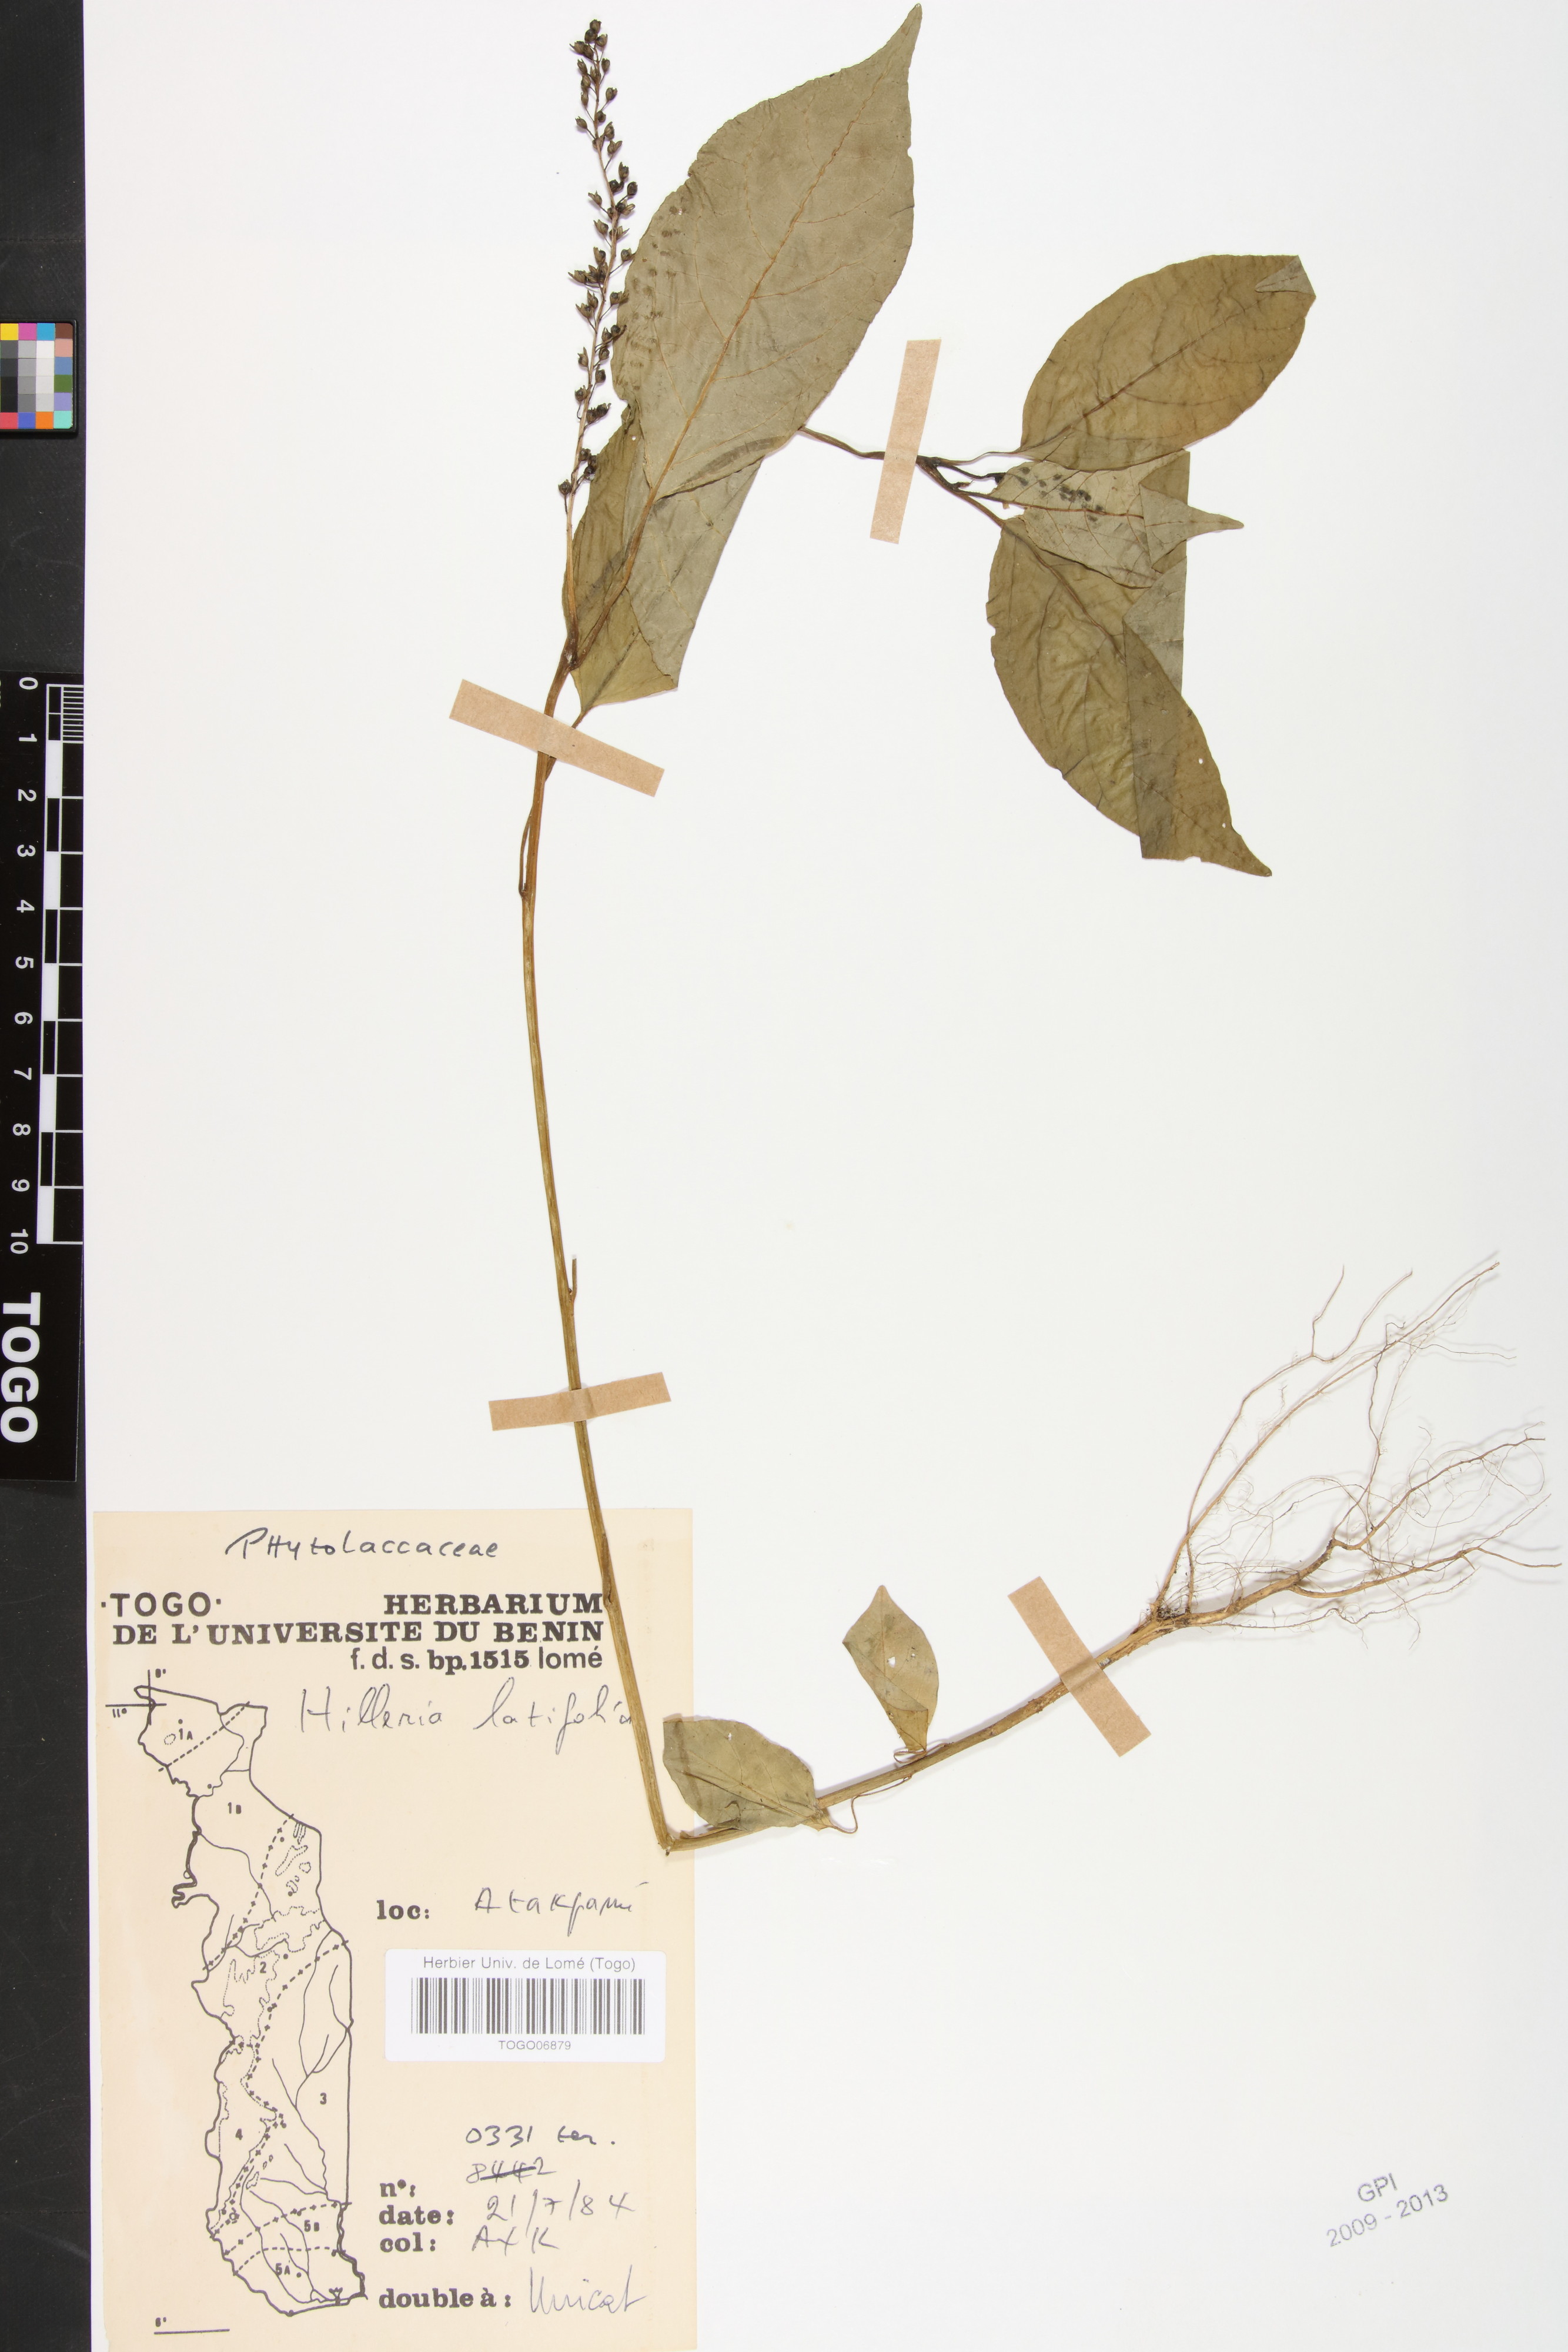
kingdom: Plantae
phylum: Tracheophyta
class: Magnoliopsida
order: Caryophyllales
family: Phytolaccaceae
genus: Hilleria
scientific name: Hilleria latifolia
